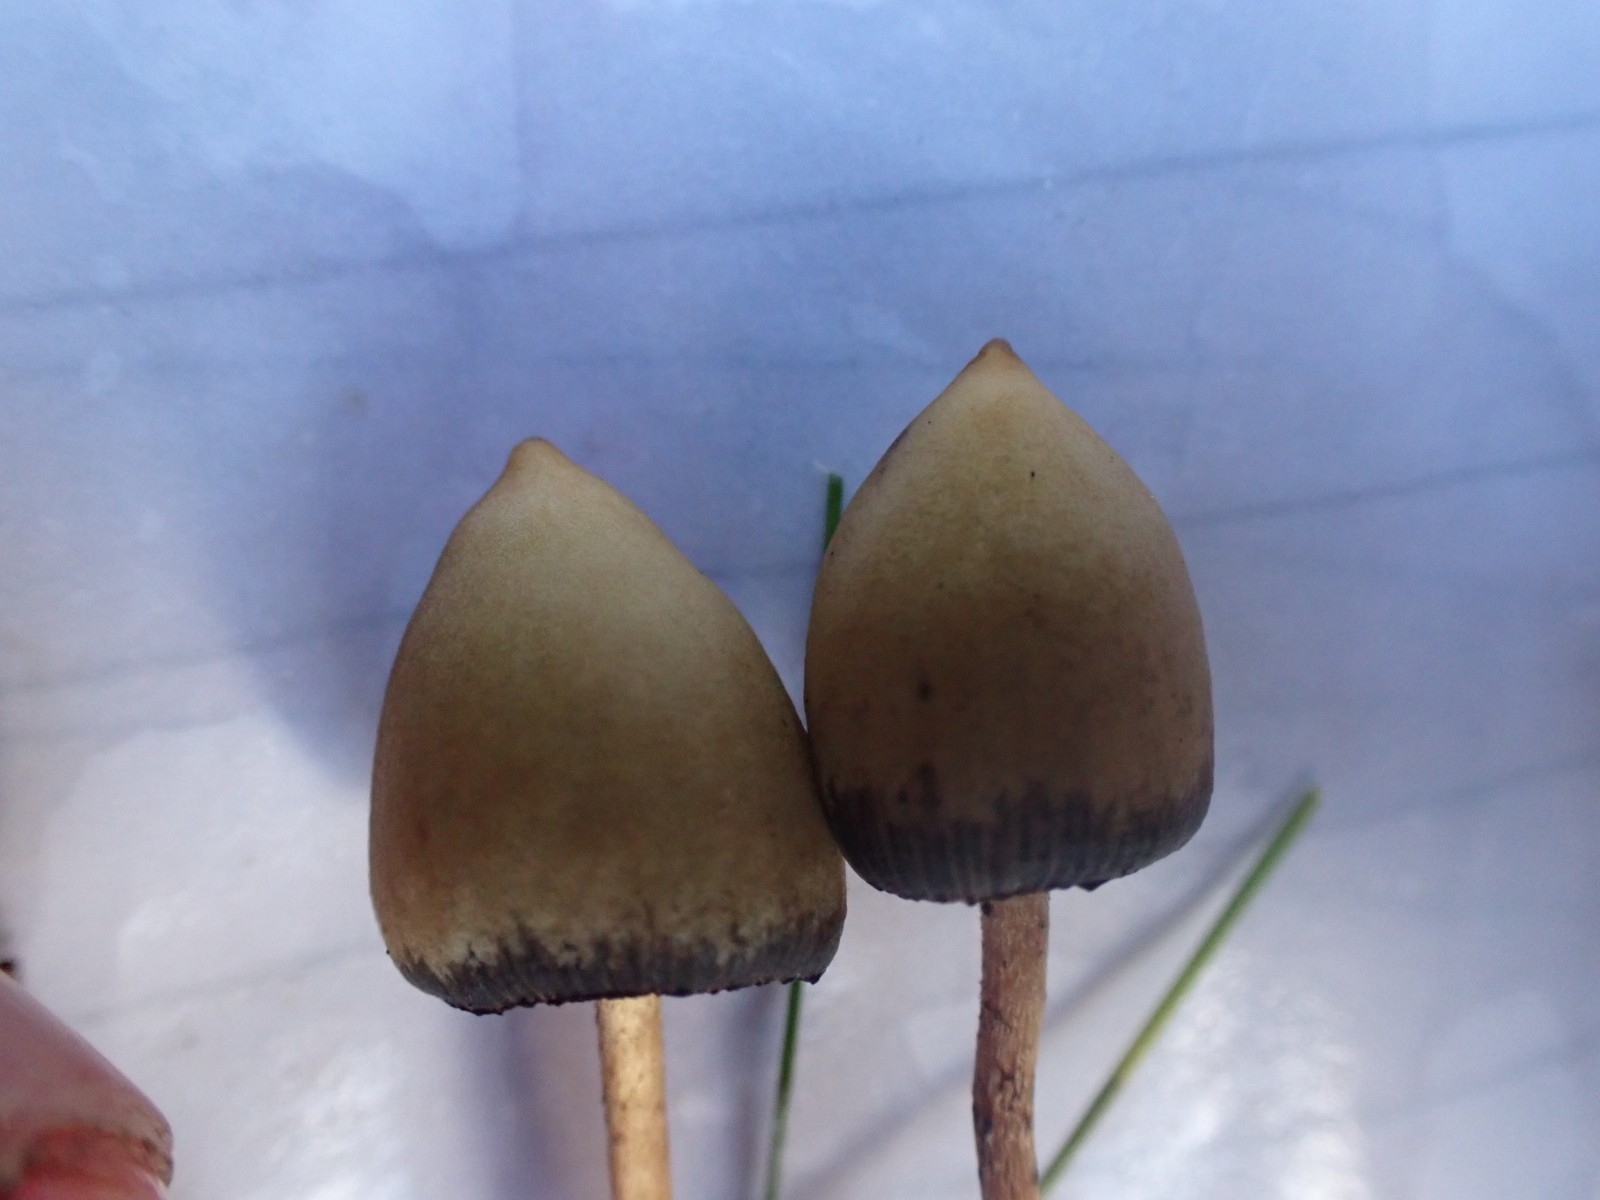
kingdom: Fungi
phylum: Basidiomycota
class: Agaricomycetes
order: Agaricales
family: Hymenogastraceae
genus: Psilocybe
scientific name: Psilocybe semilanceata
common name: spids nøgenhat
